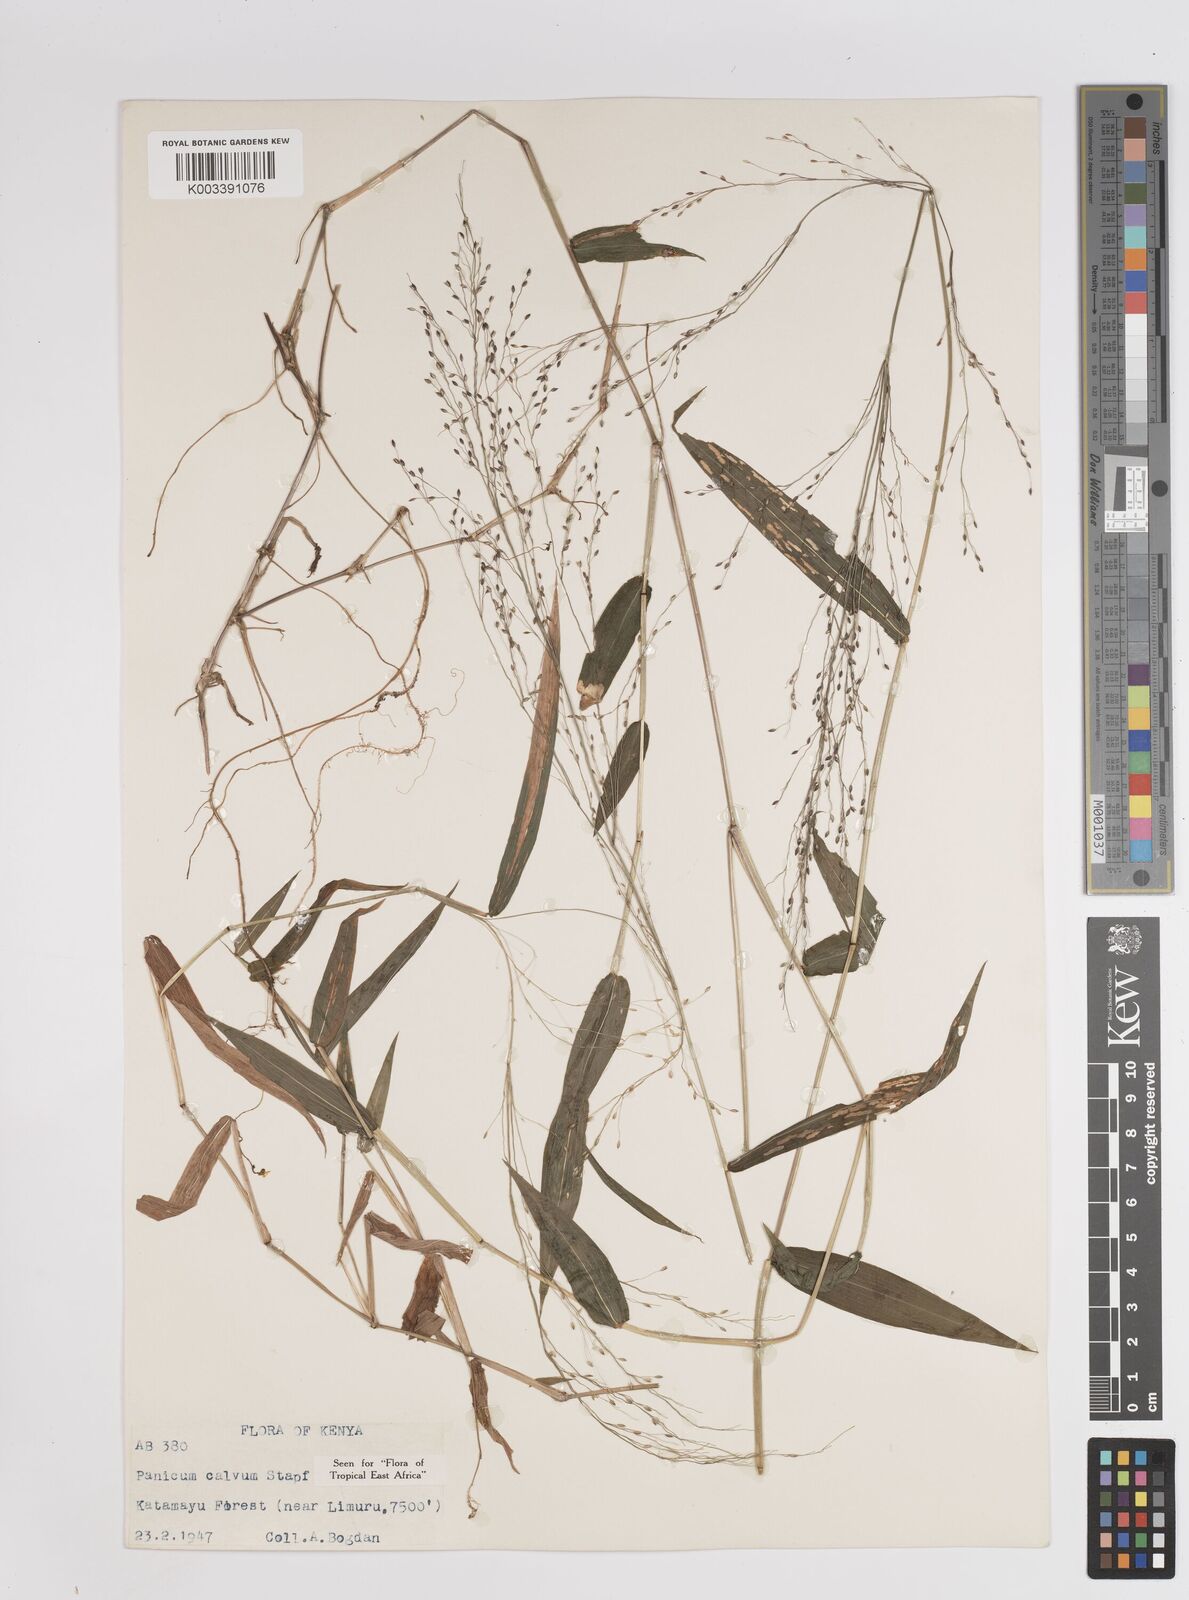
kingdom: Plantae
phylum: Tracheophyta
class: Liliopsida
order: Poales
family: Poaceae
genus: Panicum
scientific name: Panicum calvum
